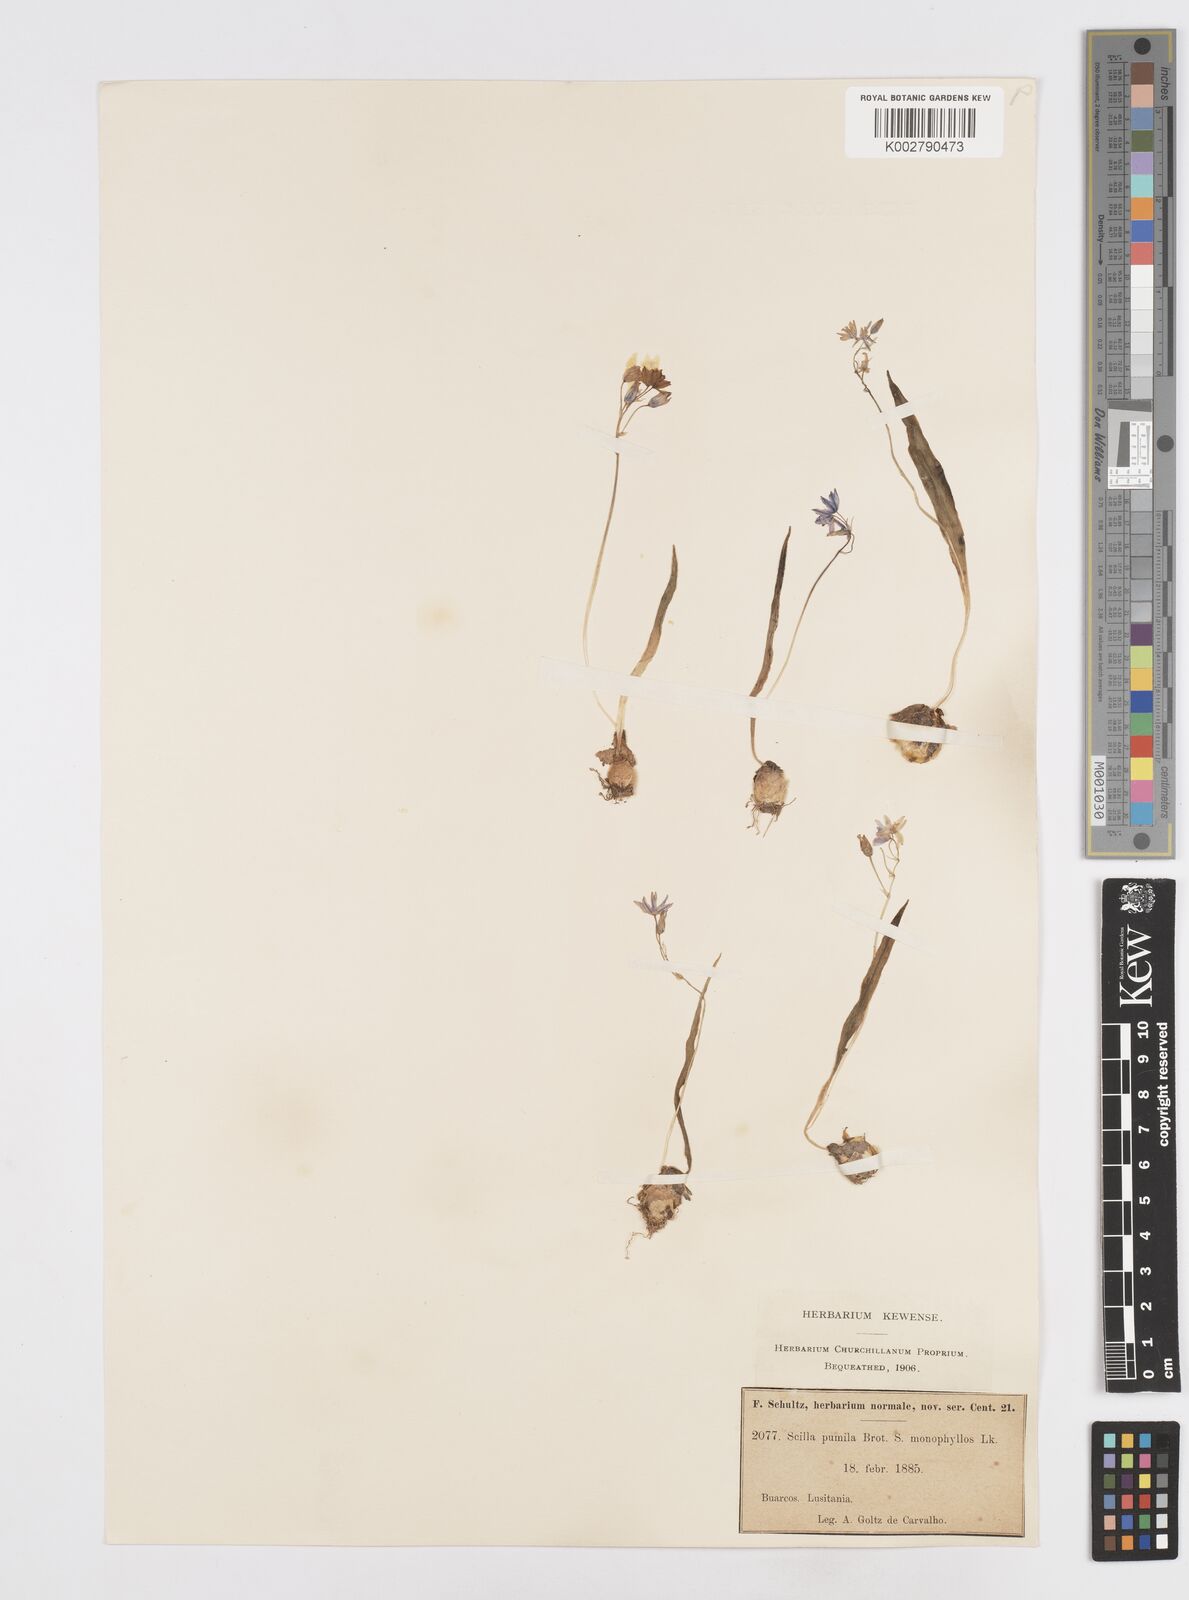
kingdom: Plantae
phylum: Tracheophyta
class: Liliopsida
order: Asparagales
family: Asparagaceae
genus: Scilla
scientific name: Scilla monophyllos
